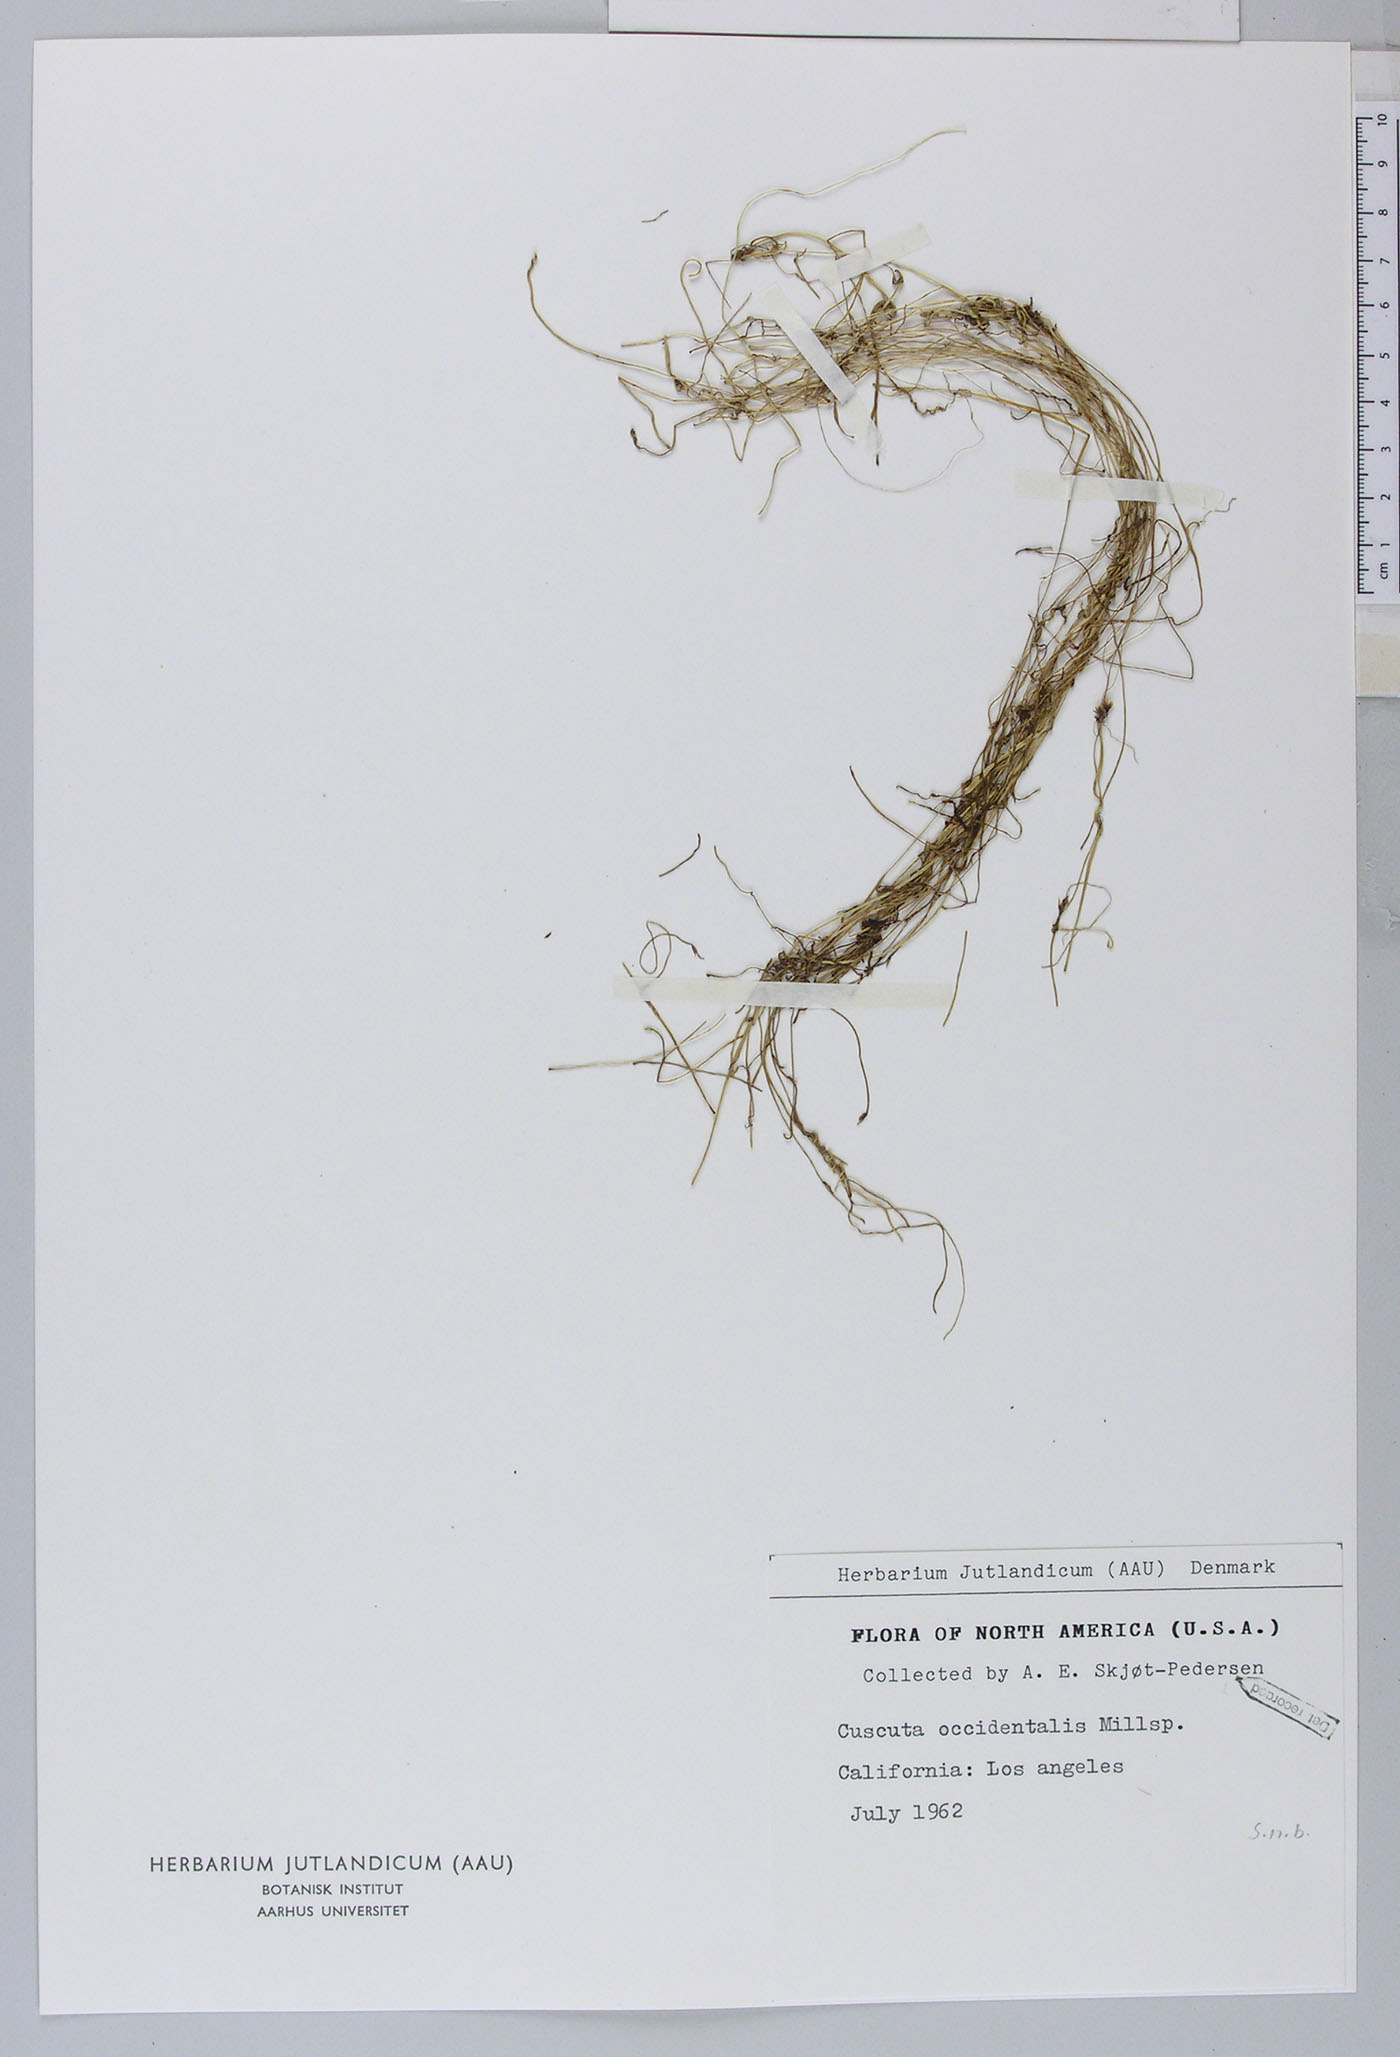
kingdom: Plantae
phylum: Tracheophyta
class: Magnoliopsida
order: Solanales
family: Convolvulaceae
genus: Cuscuta
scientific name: Cuscuta subinclusa
